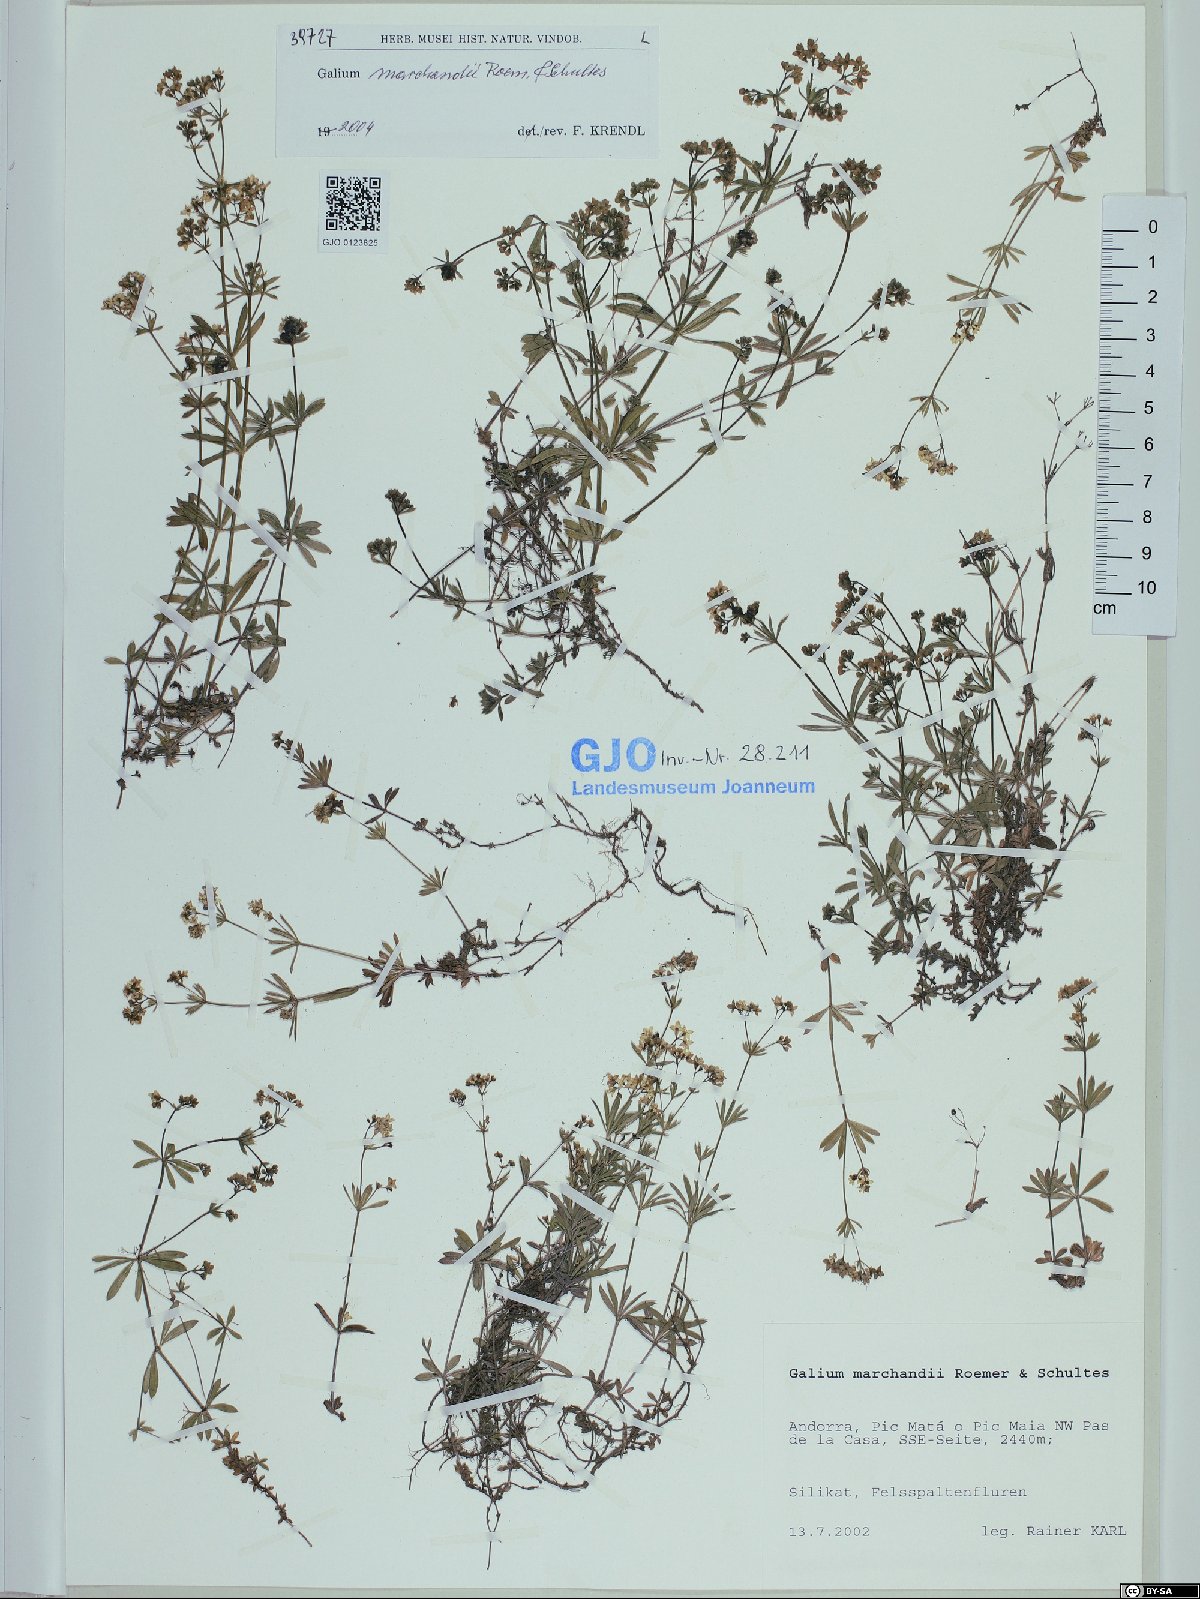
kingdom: Plantae
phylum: Tracheophyta
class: Magnoliopsida
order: Gentianales
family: Rubiaceae
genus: Galium
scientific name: Galium marchandii
